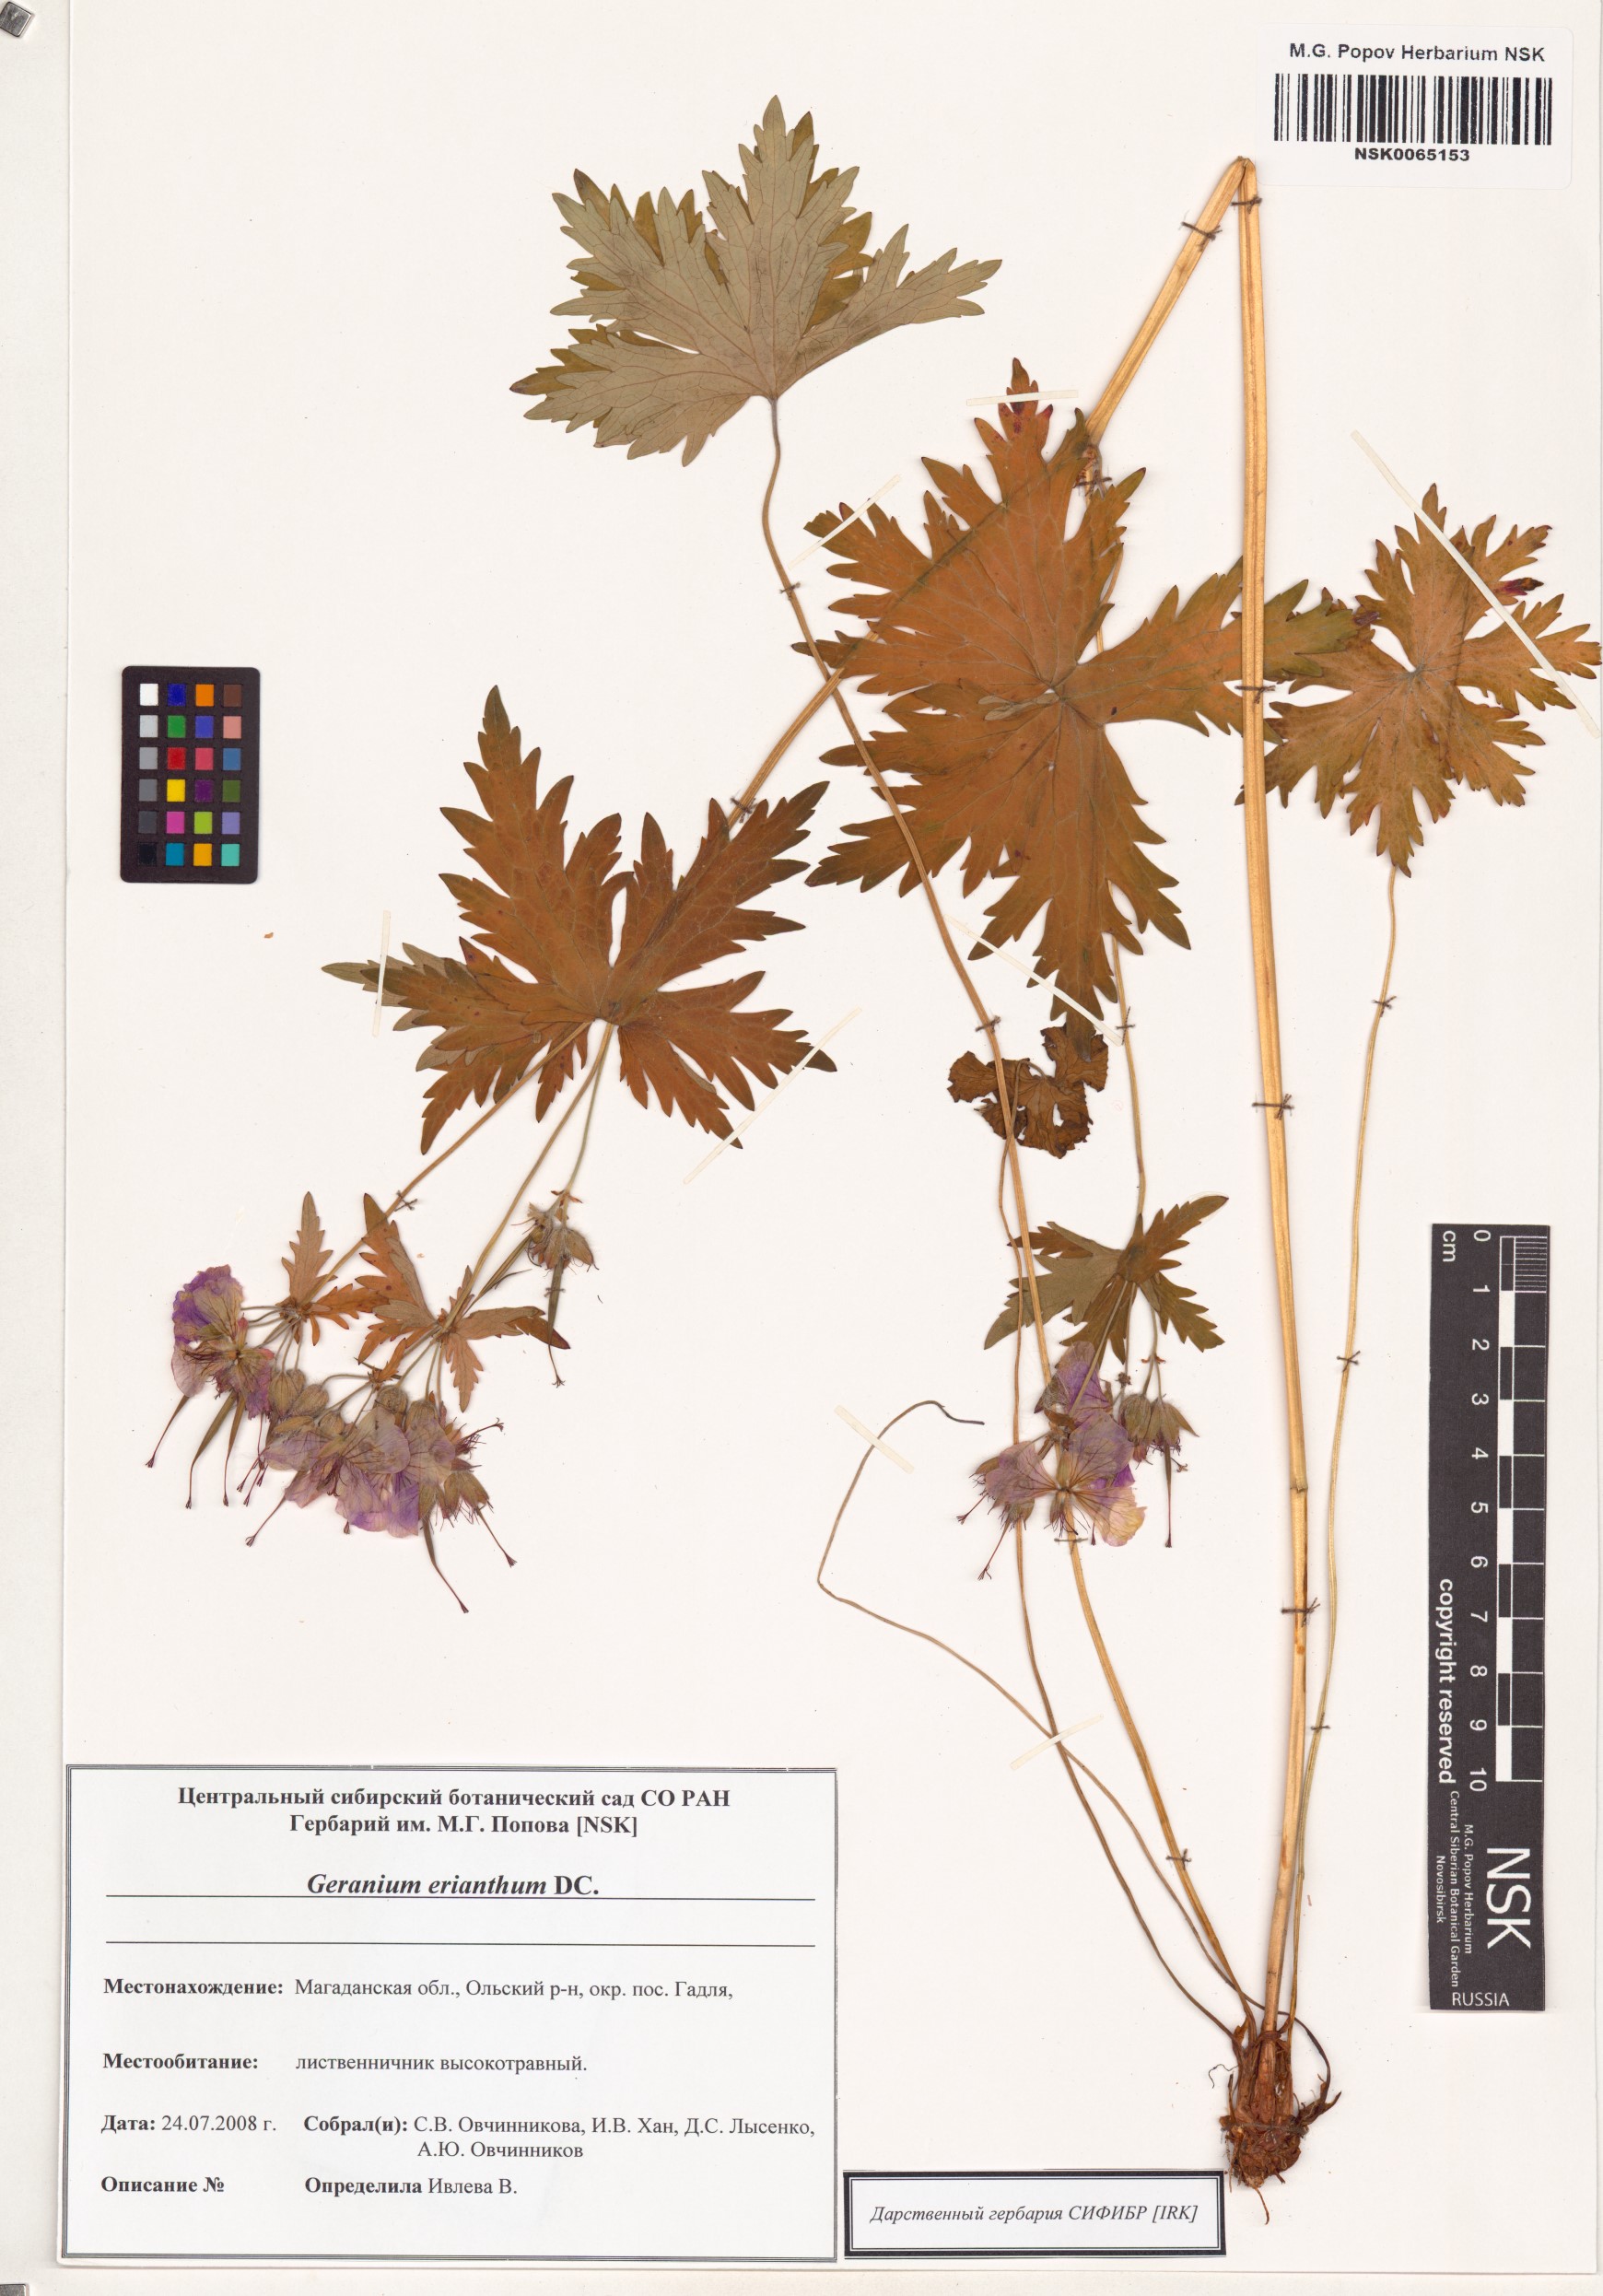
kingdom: Plantae
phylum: Tracheophyta
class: Magnoliopsida
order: Geraniales
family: Geraniaceae
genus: Geranium
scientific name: Geranium erianthum
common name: Northern crane's-bill
